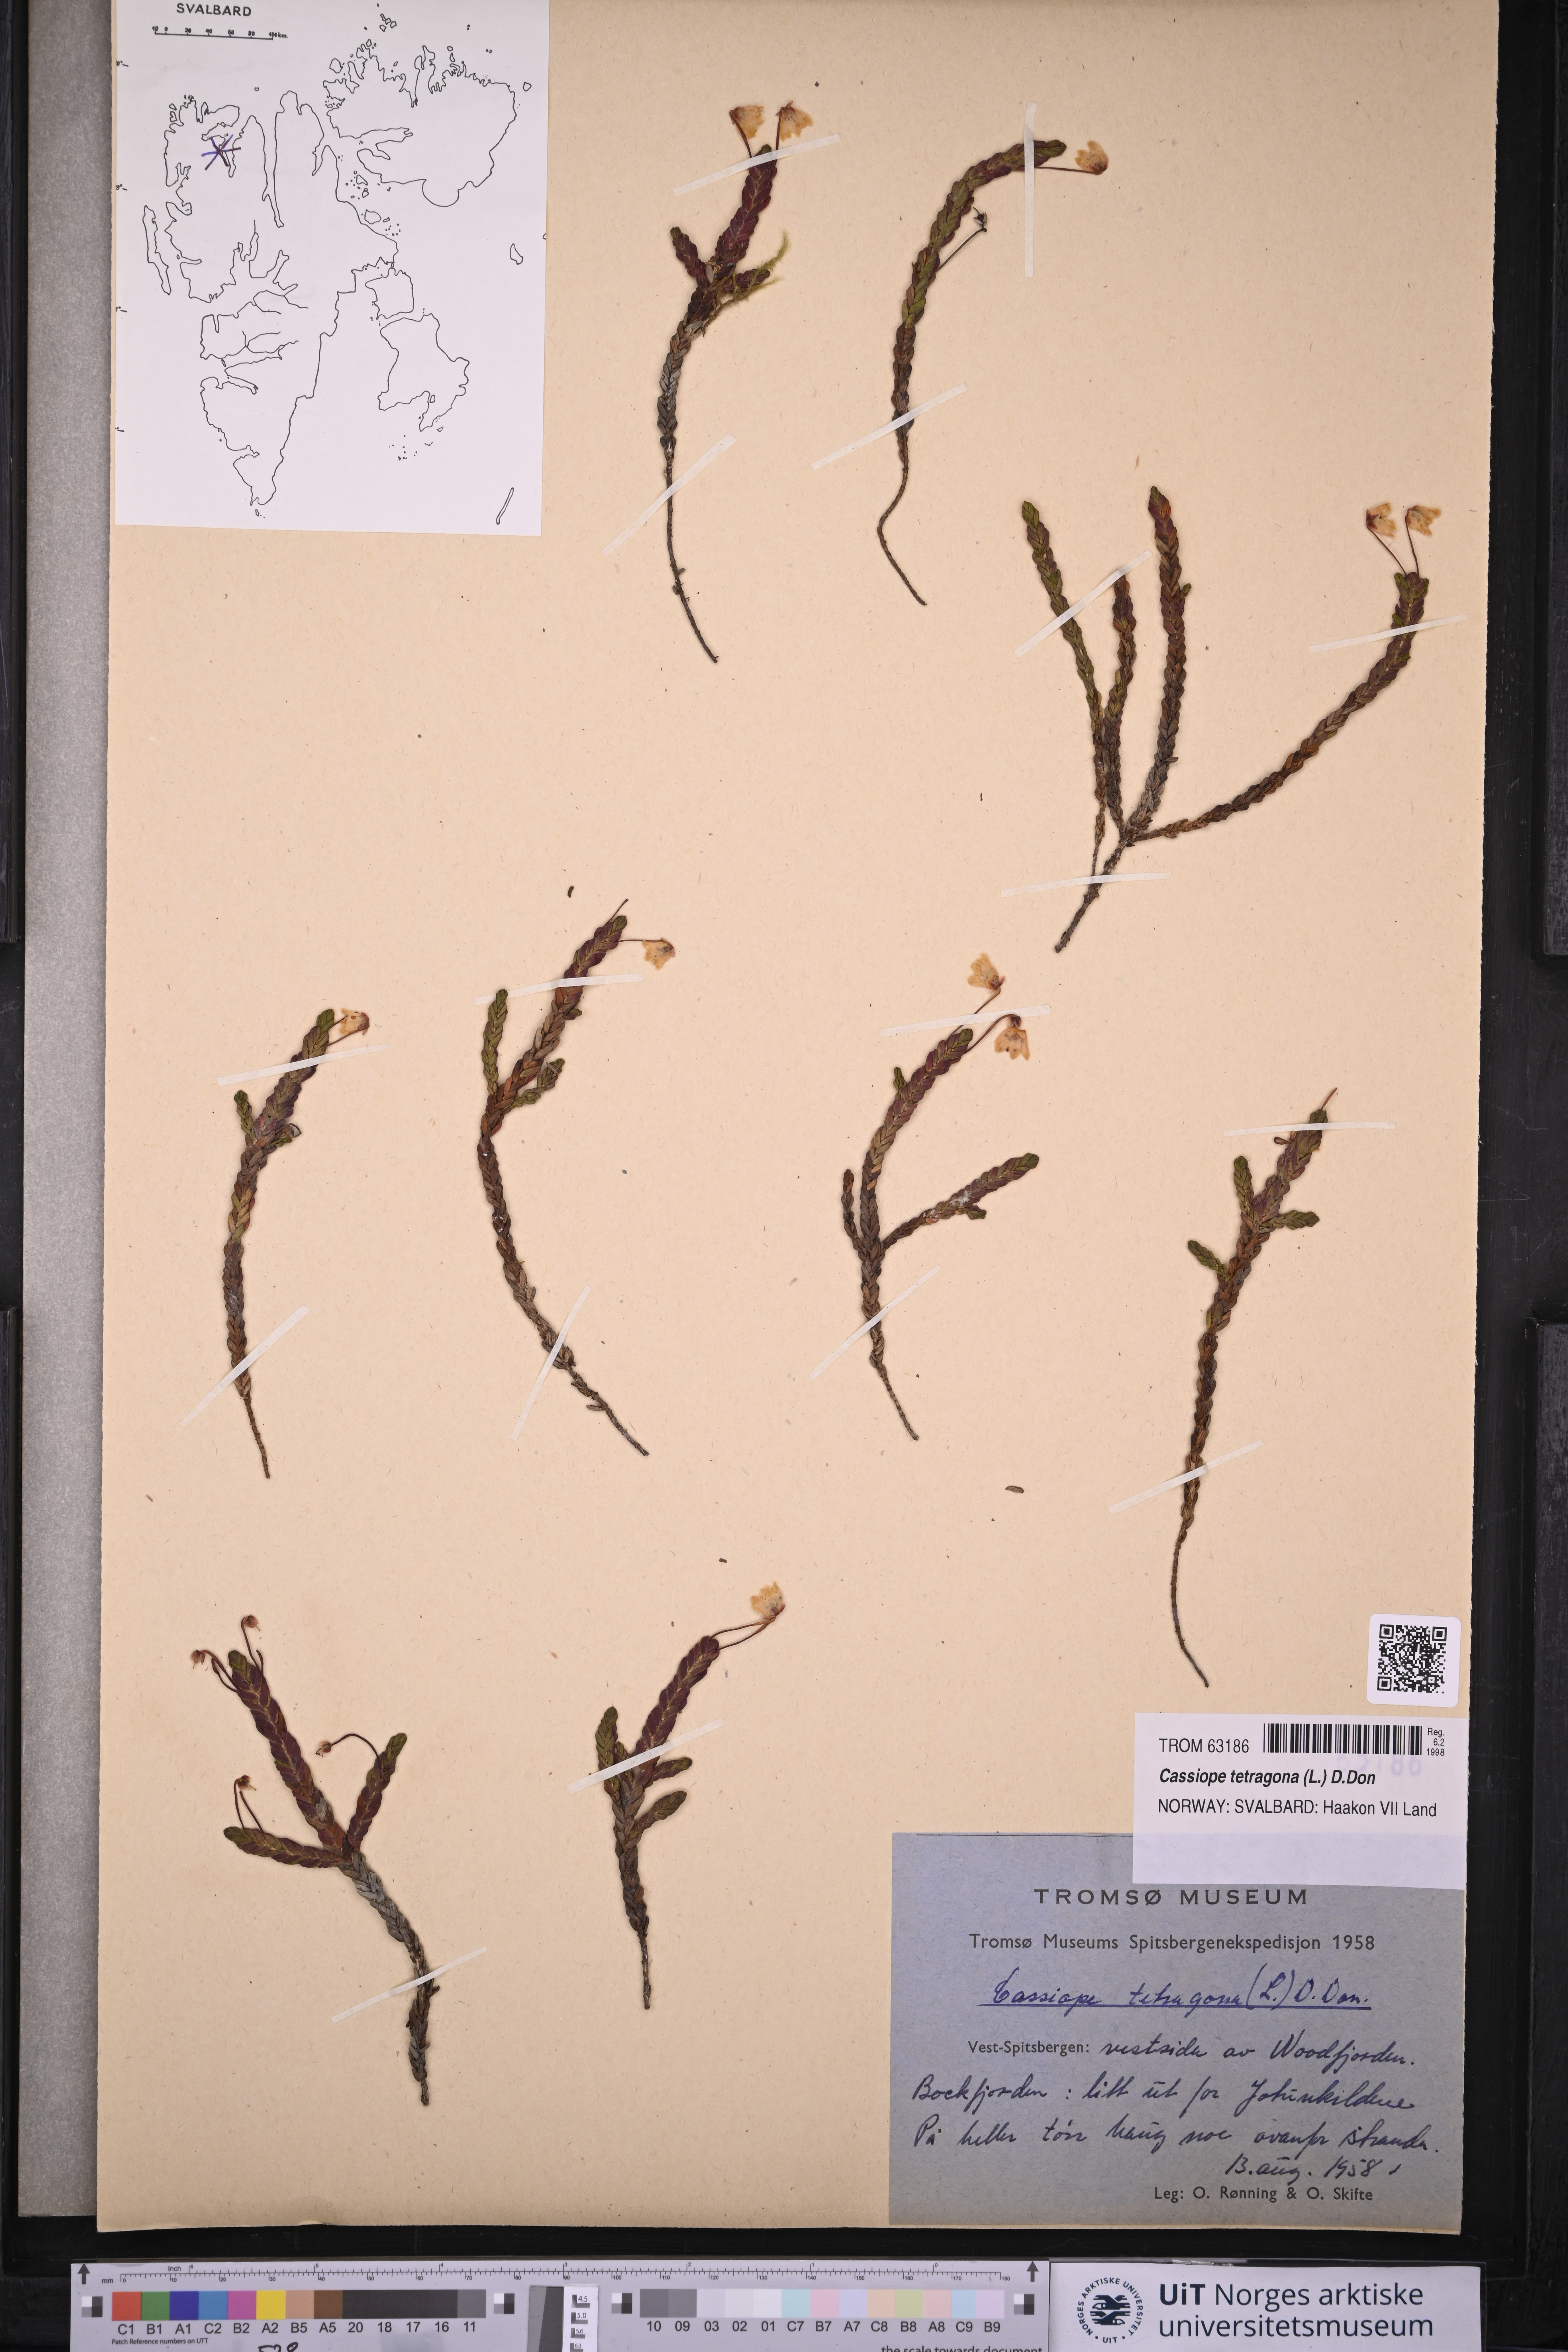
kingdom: Plantae
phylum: Tracheophyta
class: Magnoliopsida
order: Ericales
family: Ericaceae
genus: Cassiope
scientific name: Cassiope tetragona
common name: Arctic bell heather
